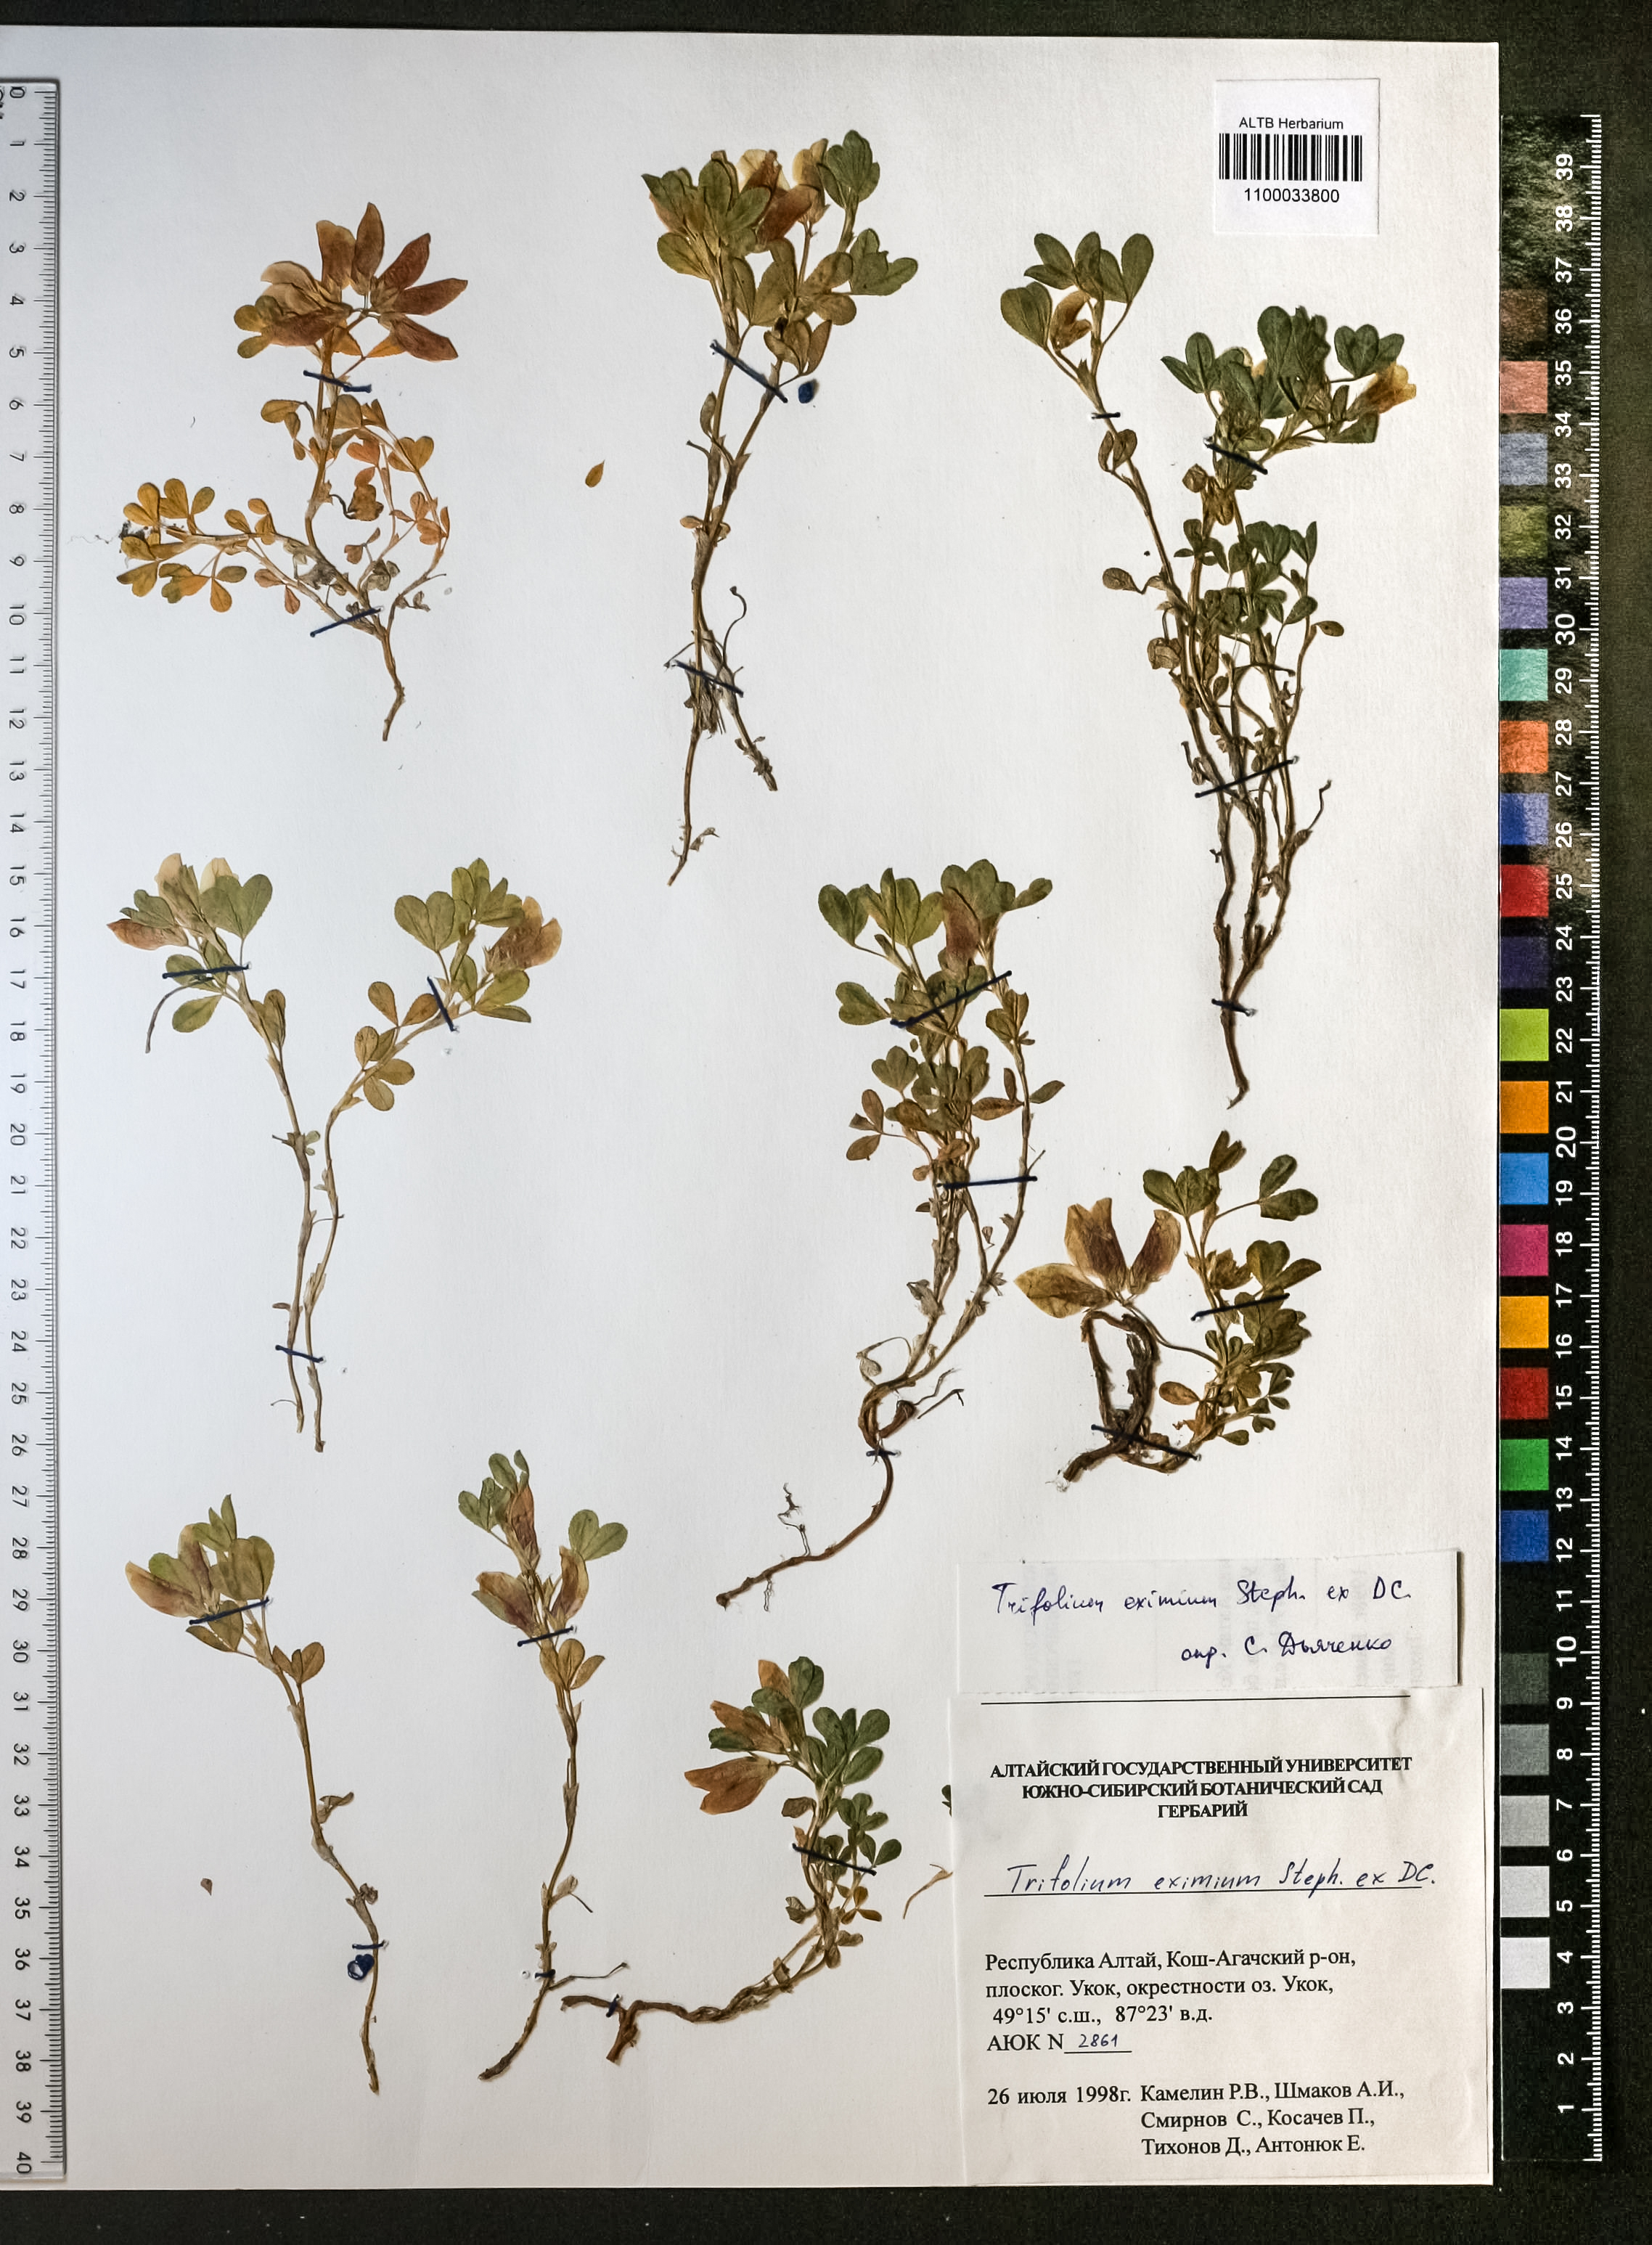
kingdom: Plantae
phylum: Tracheophyta
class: Magnoliopsida
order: Fabales
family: Fabaceae
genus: Trifolium
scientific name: Trifolium eximium
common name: Excellent clover
